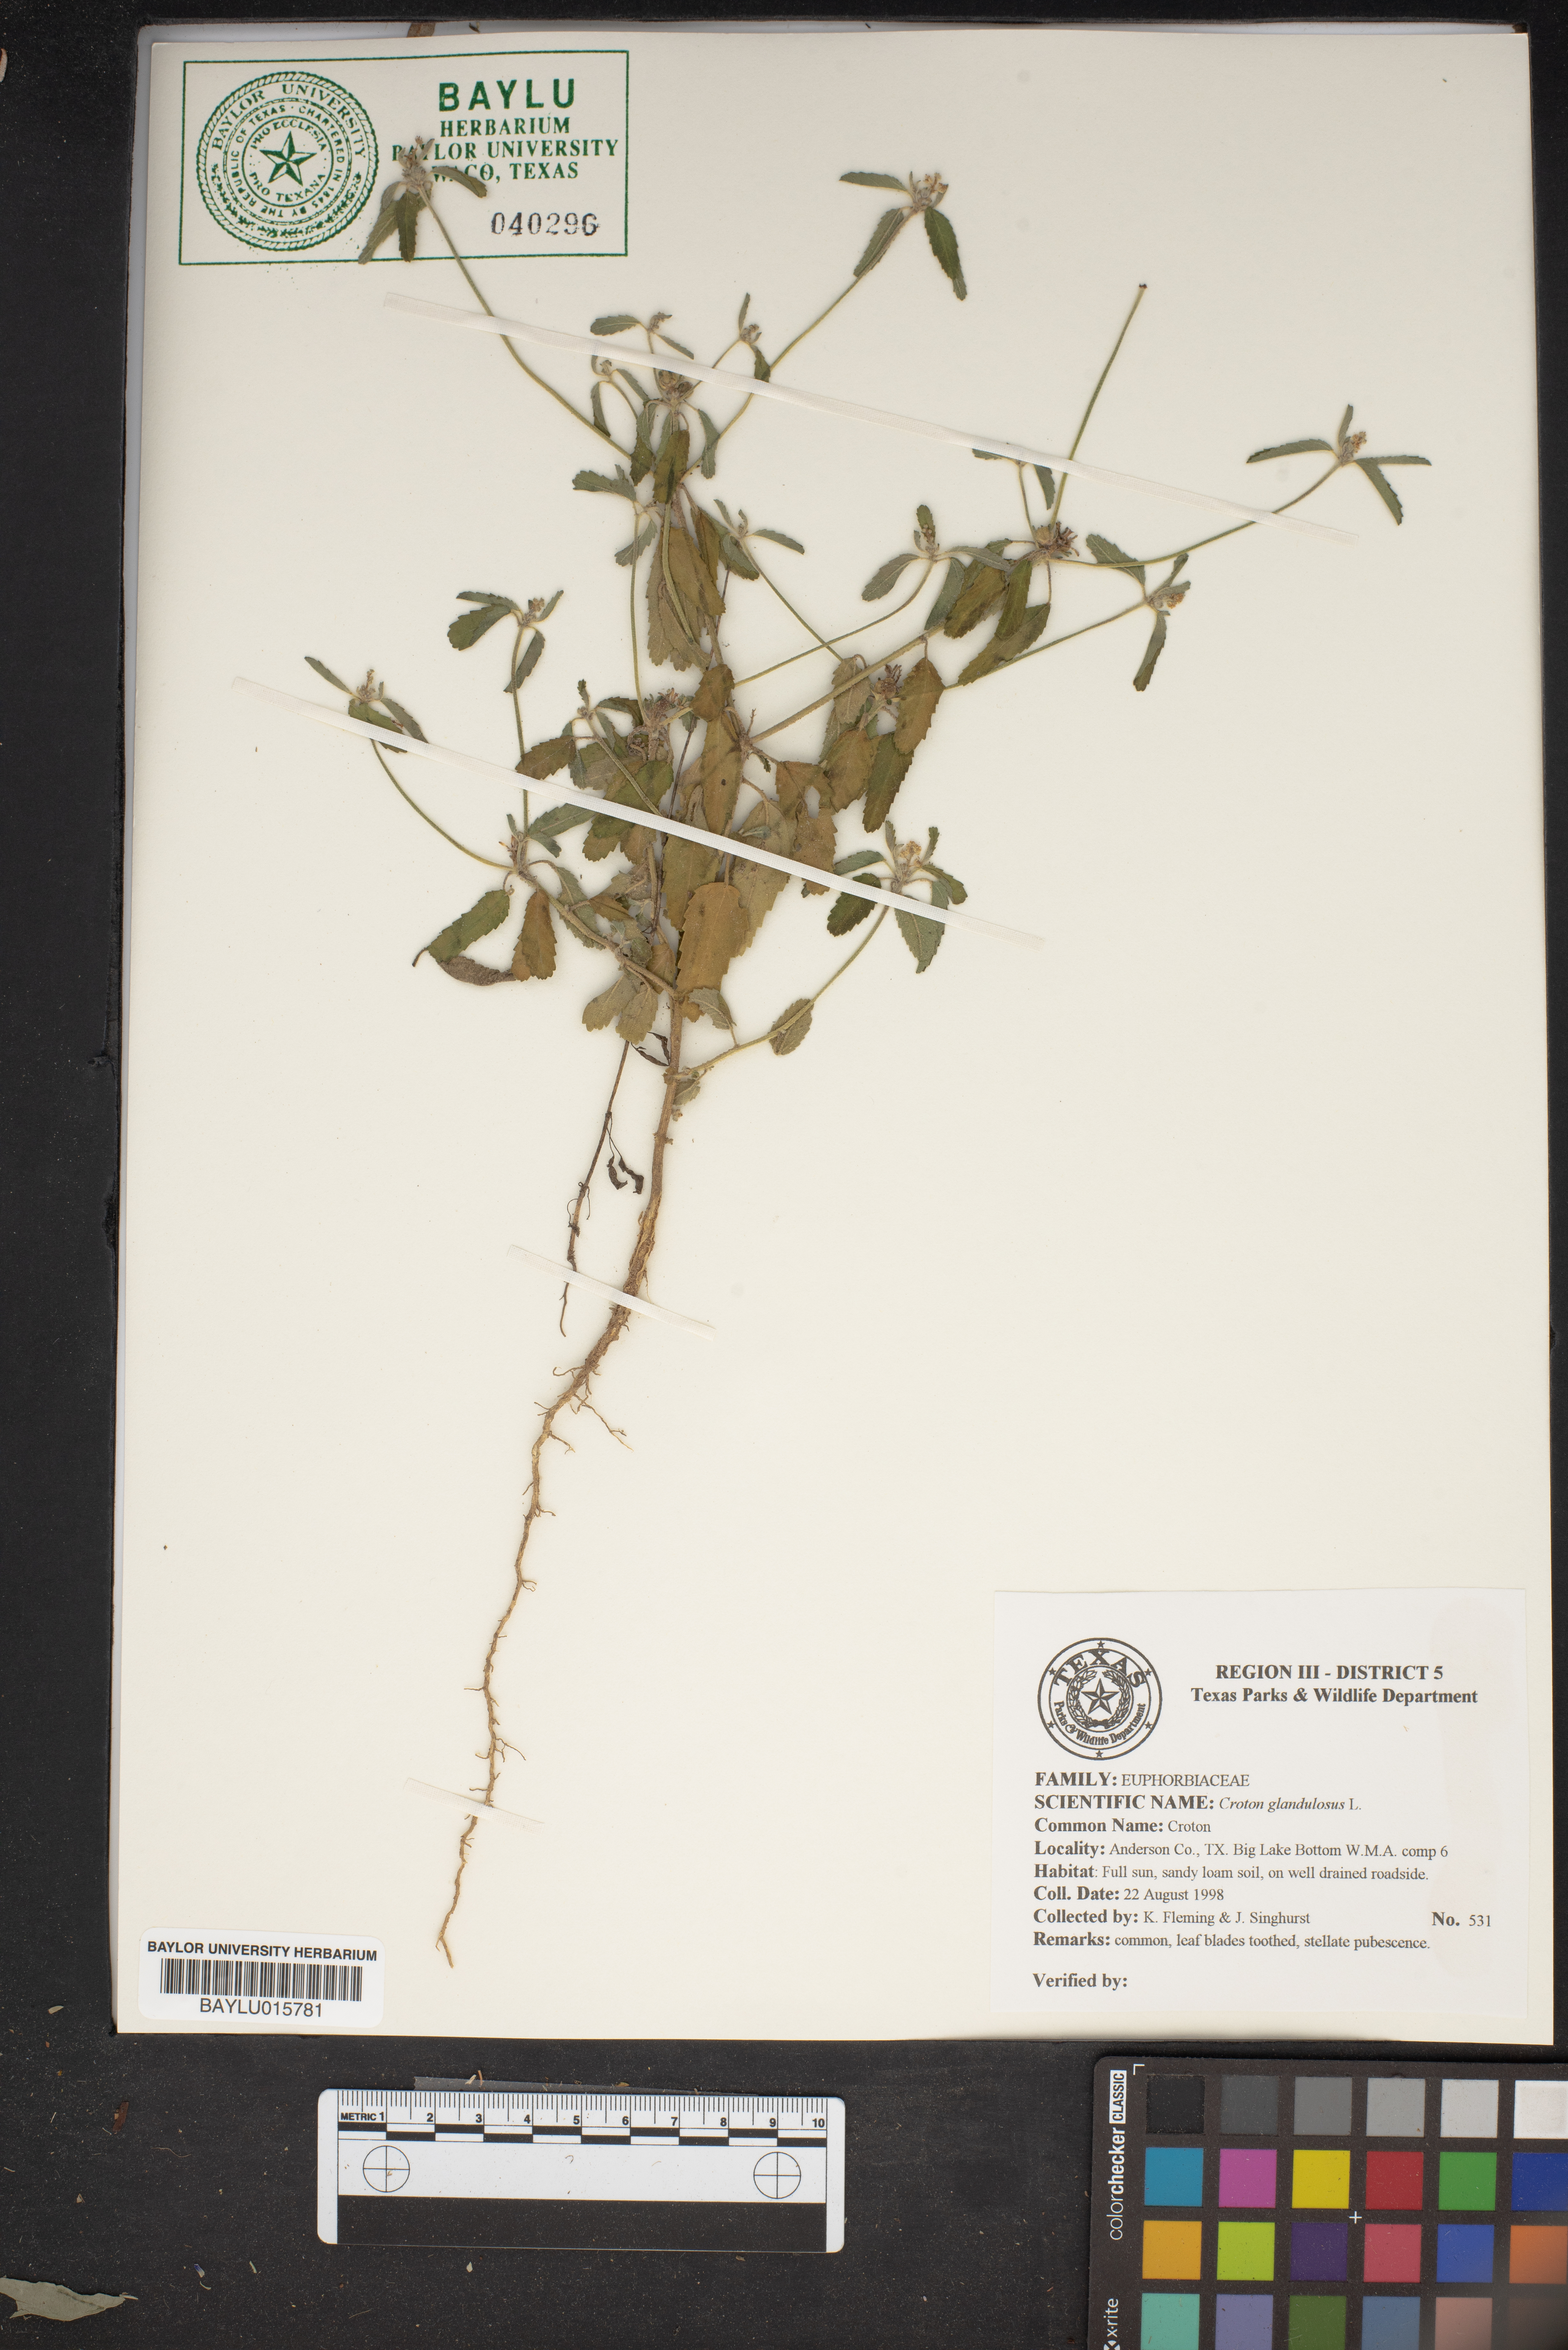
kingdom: Plantae
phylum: Tracheophyta
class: Magnoliopsida
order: Malpighiales
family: Euphorbiaceae
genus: Croton
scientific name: Croton glandulosus
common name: Tropic croton
